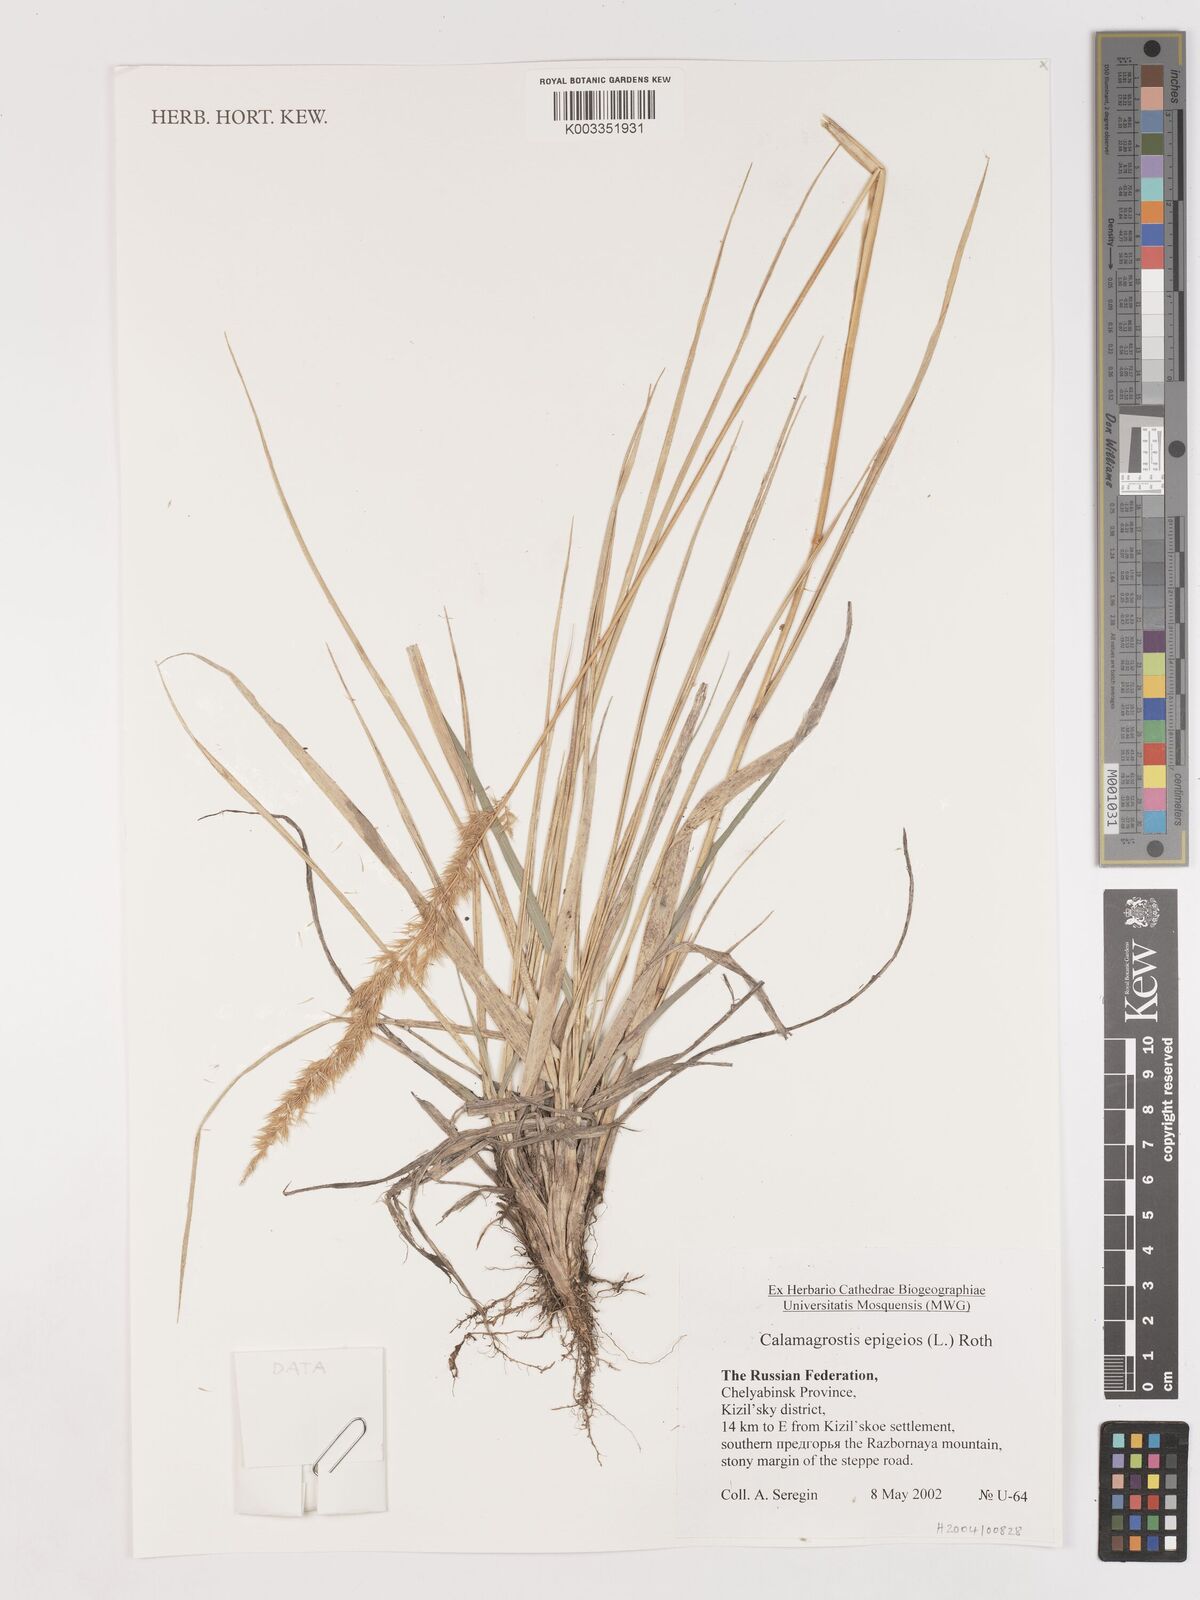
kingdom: Plantae
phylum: Tracheophyta
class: Liliopsida
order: Poales
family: Poaceae
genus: Calamagrostis
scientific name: Calamagrostis epigejos
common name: Wood small-reed
